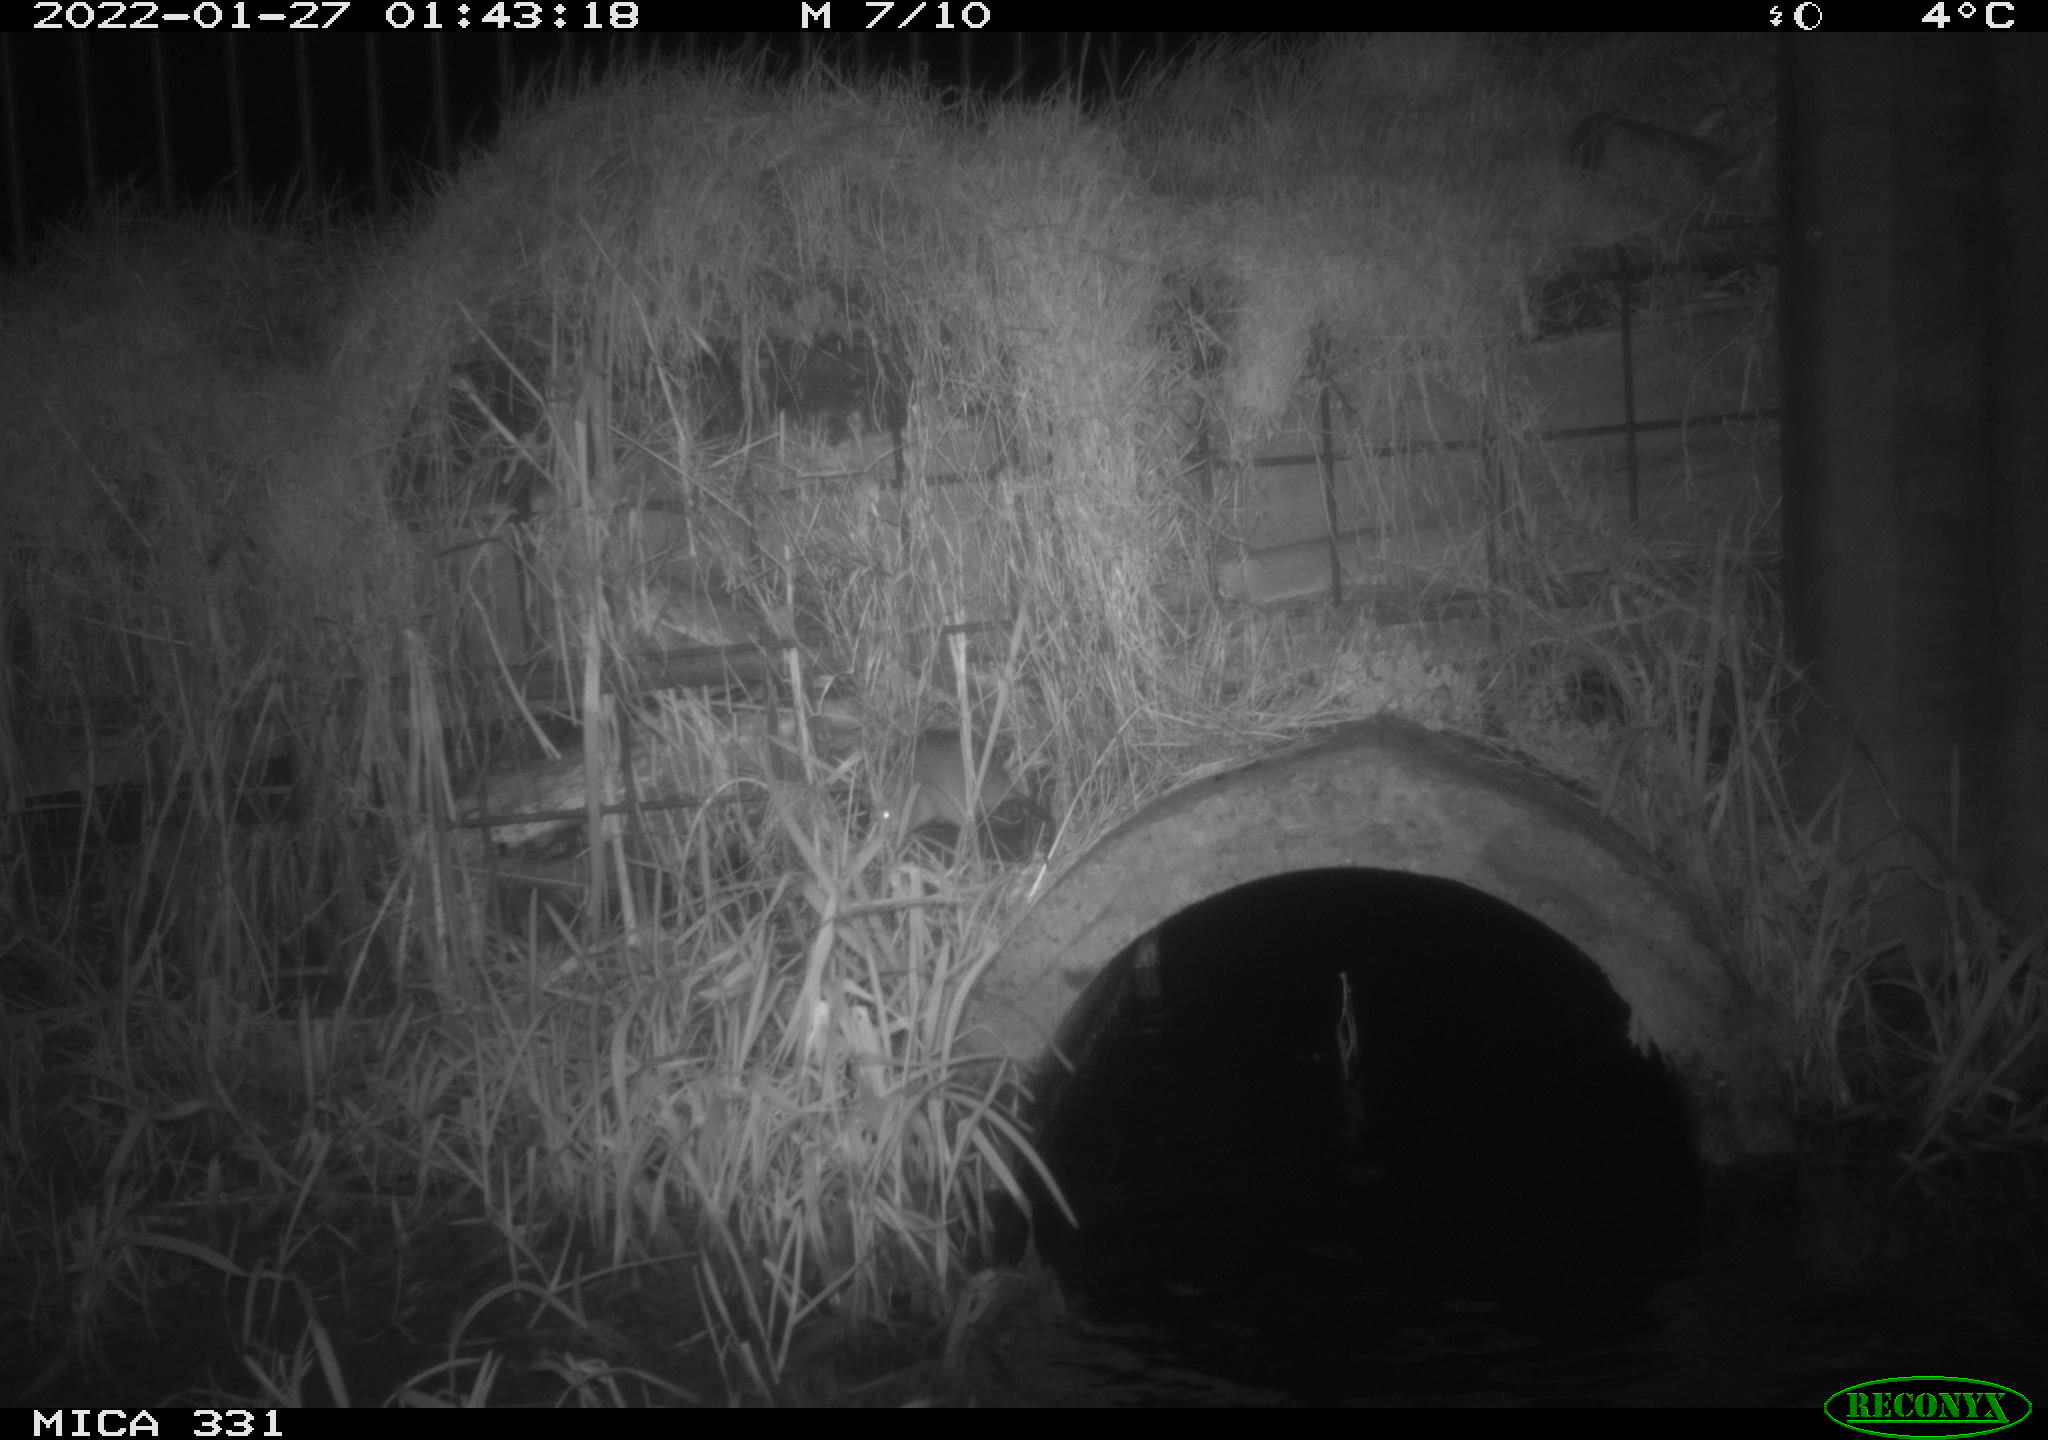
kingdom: Animalia
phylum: Chordata
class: Mammalia
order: Rodentia
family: Muridae
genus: Rattus
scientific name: Rattus norvegicus
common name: Brown rat
